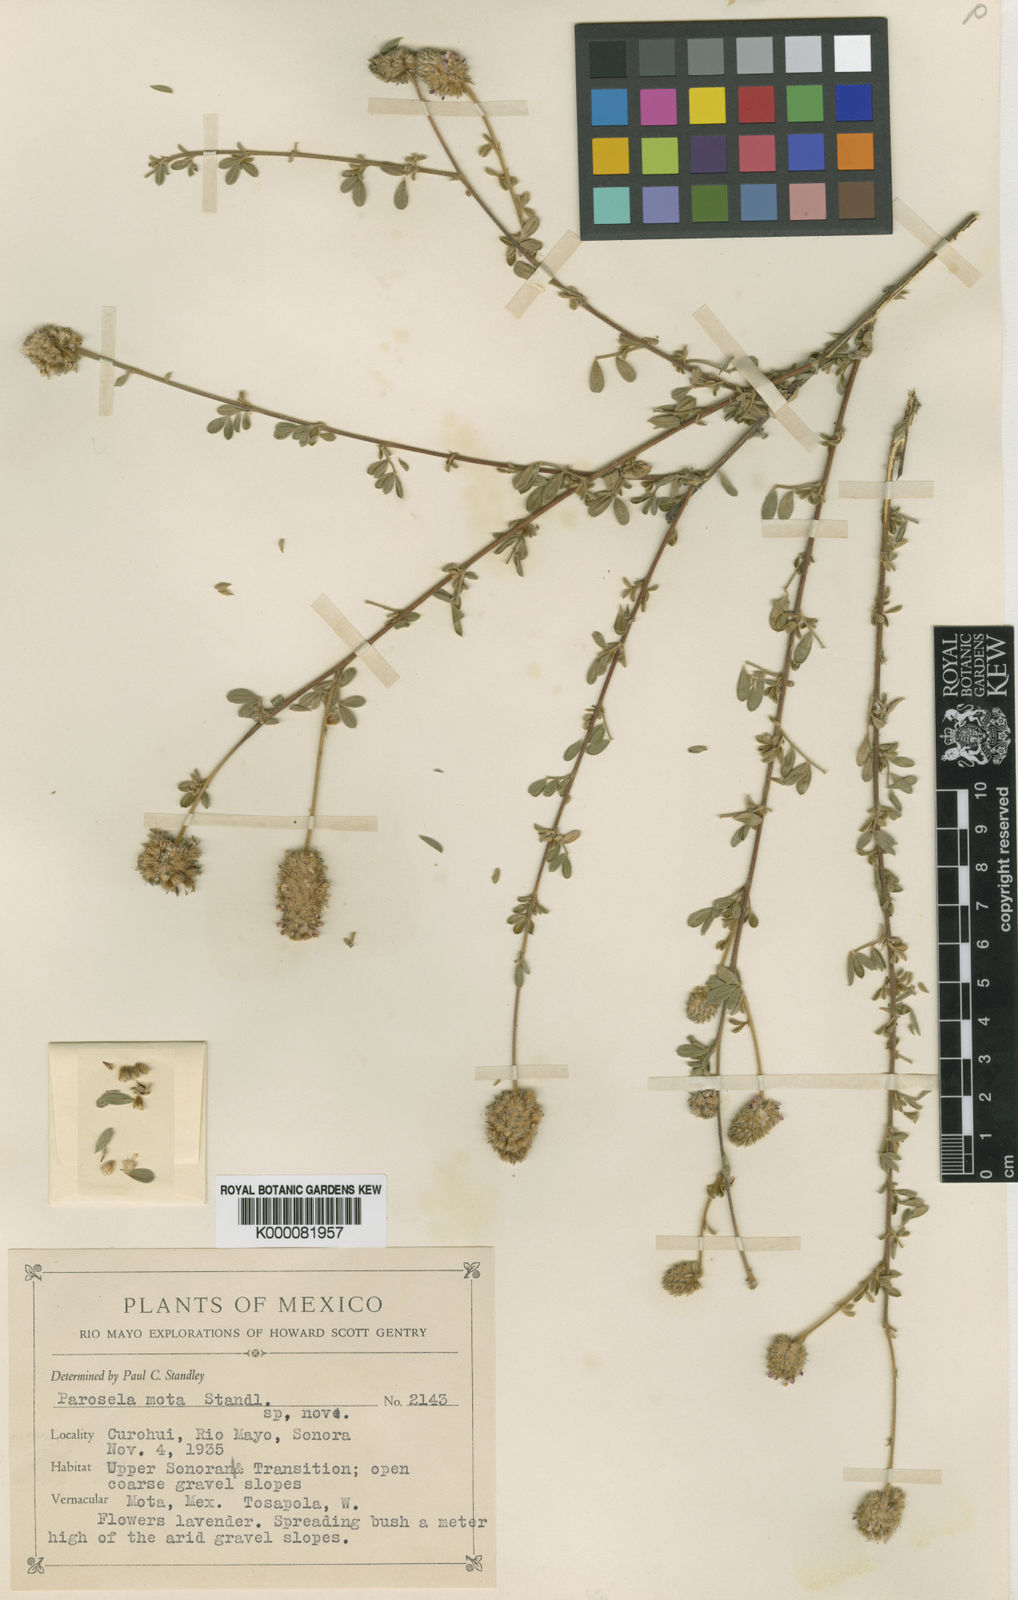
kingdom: Plantae
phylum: Tracheophyta
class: Magnoliopsida
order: Fabales
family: Fabaceae
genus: Dalea
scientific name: Dalea tomentosa
